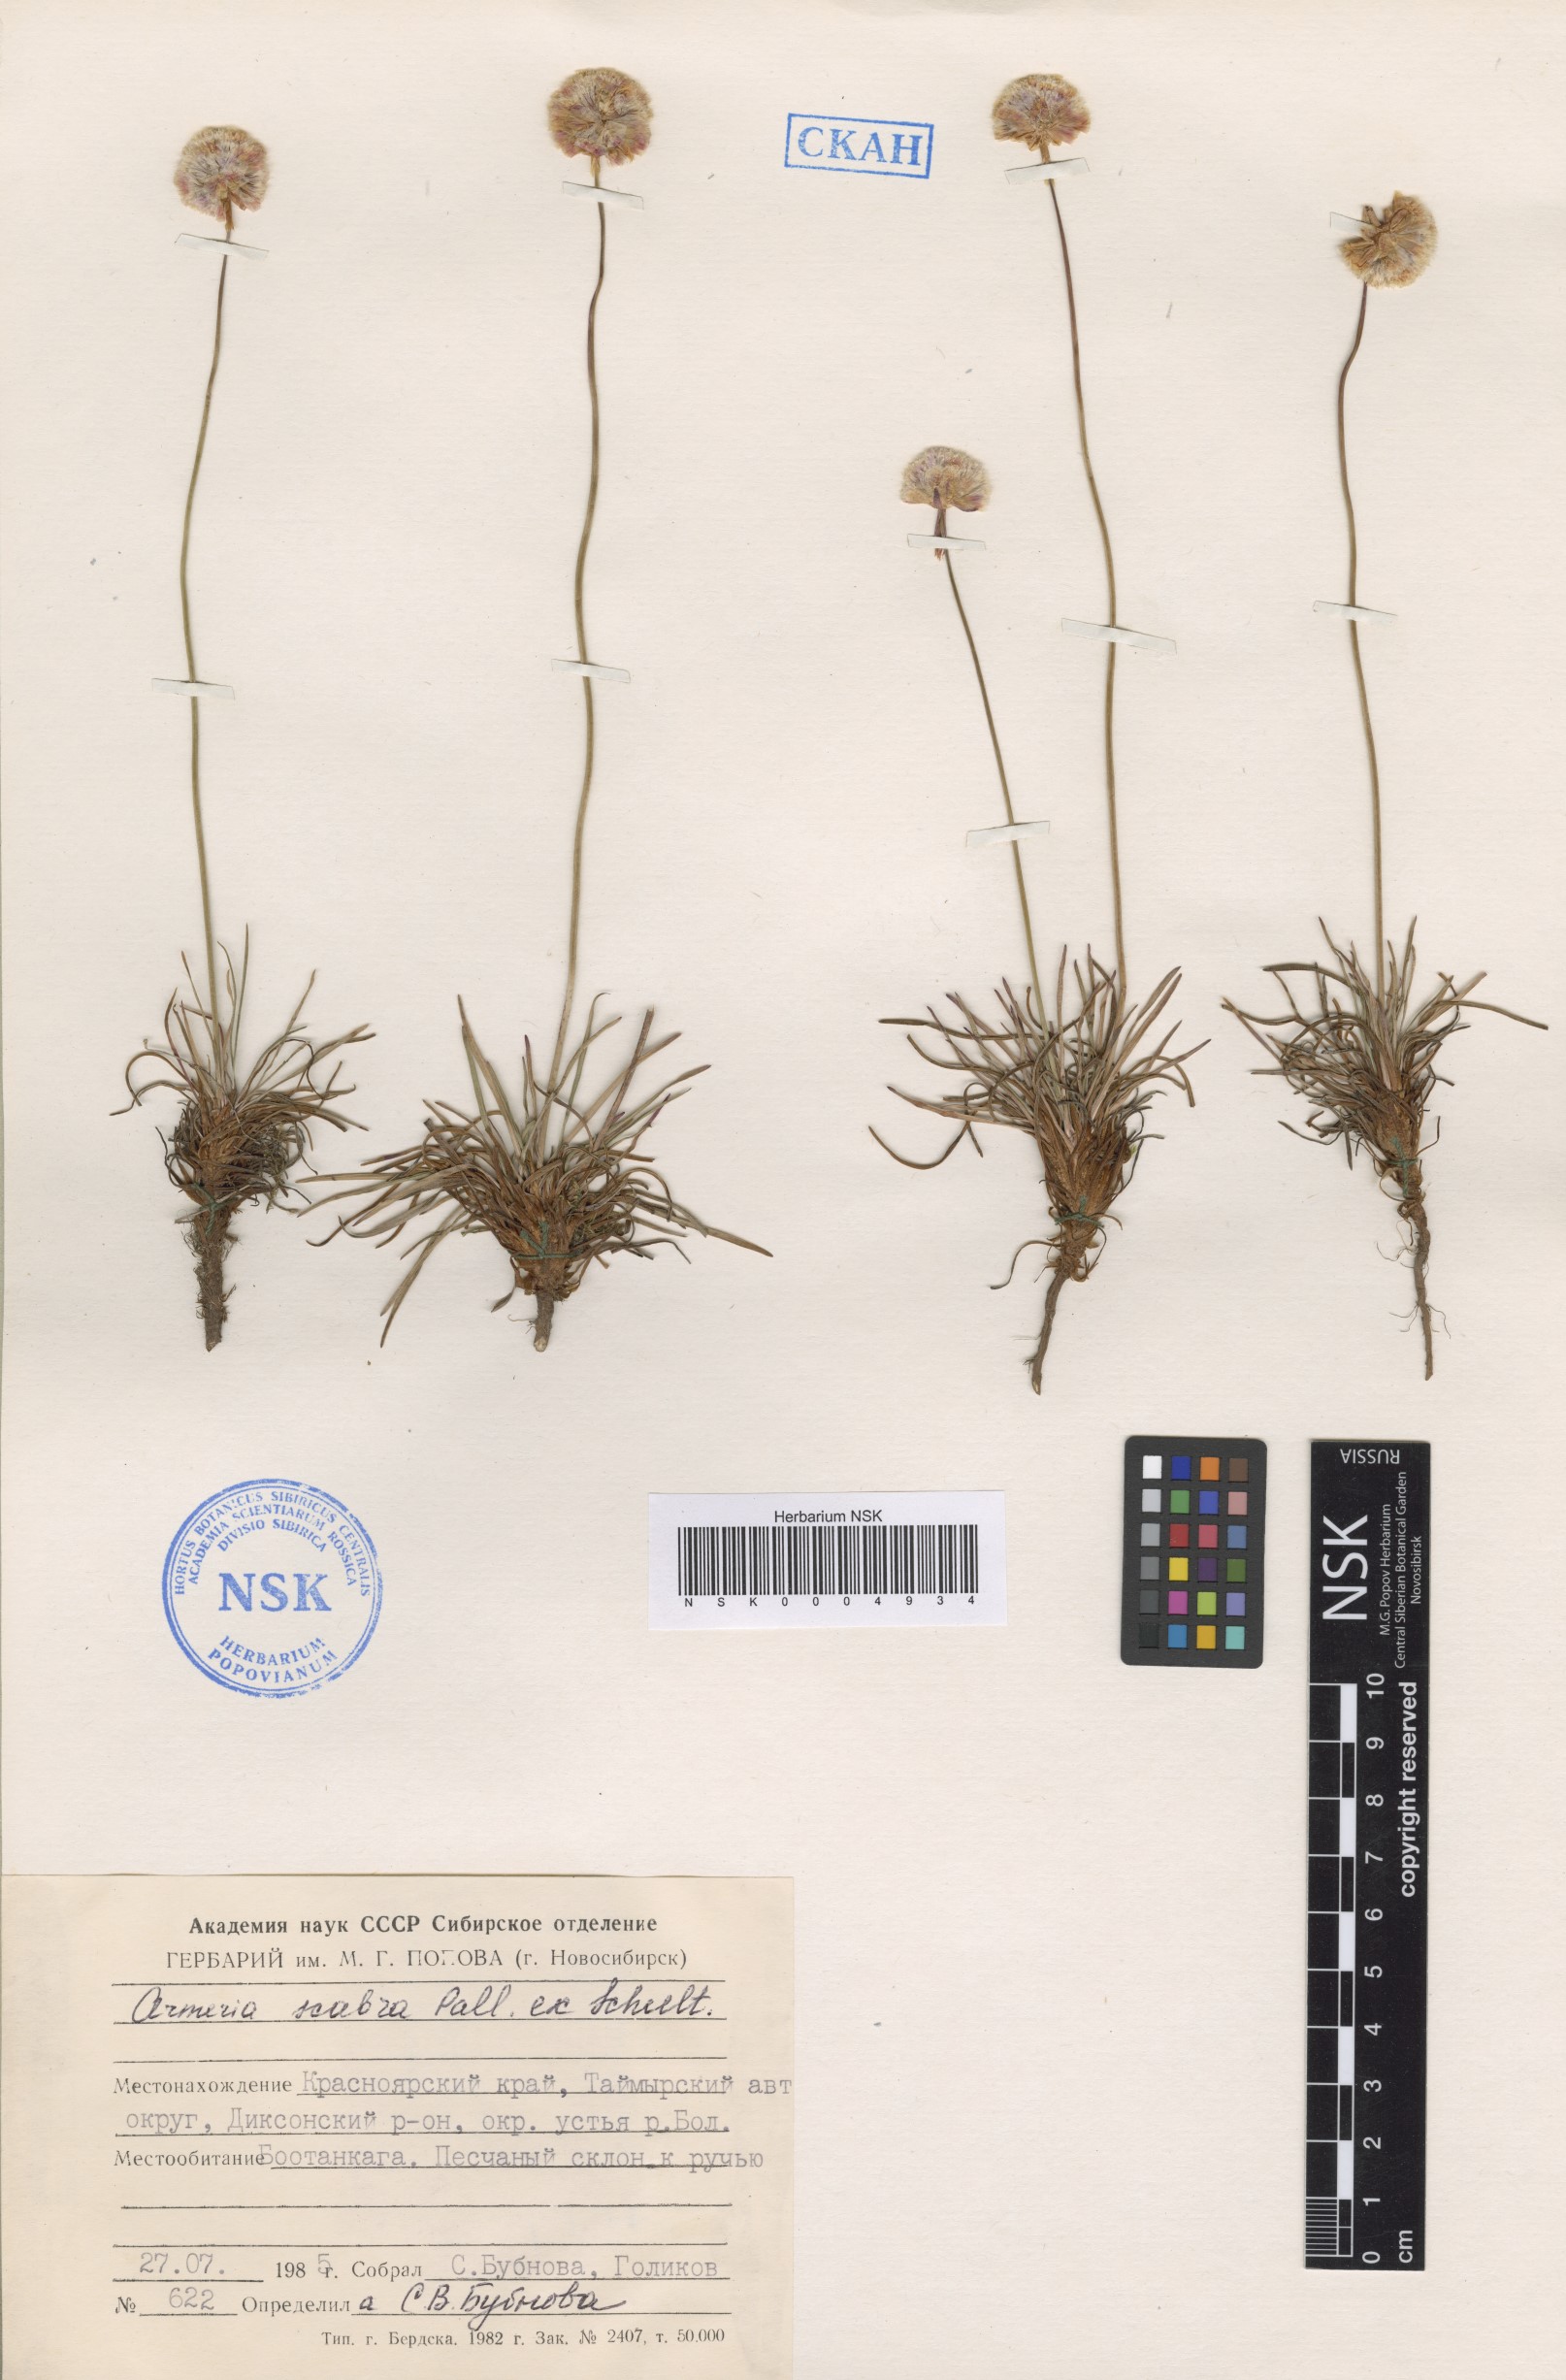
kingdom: Plantae
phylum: Tracheophyta
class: Magnoliopsida
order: Caryophyllales
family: Plumbaginaceae
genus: Armeria
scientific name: Armeria maritima
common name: Thrift
